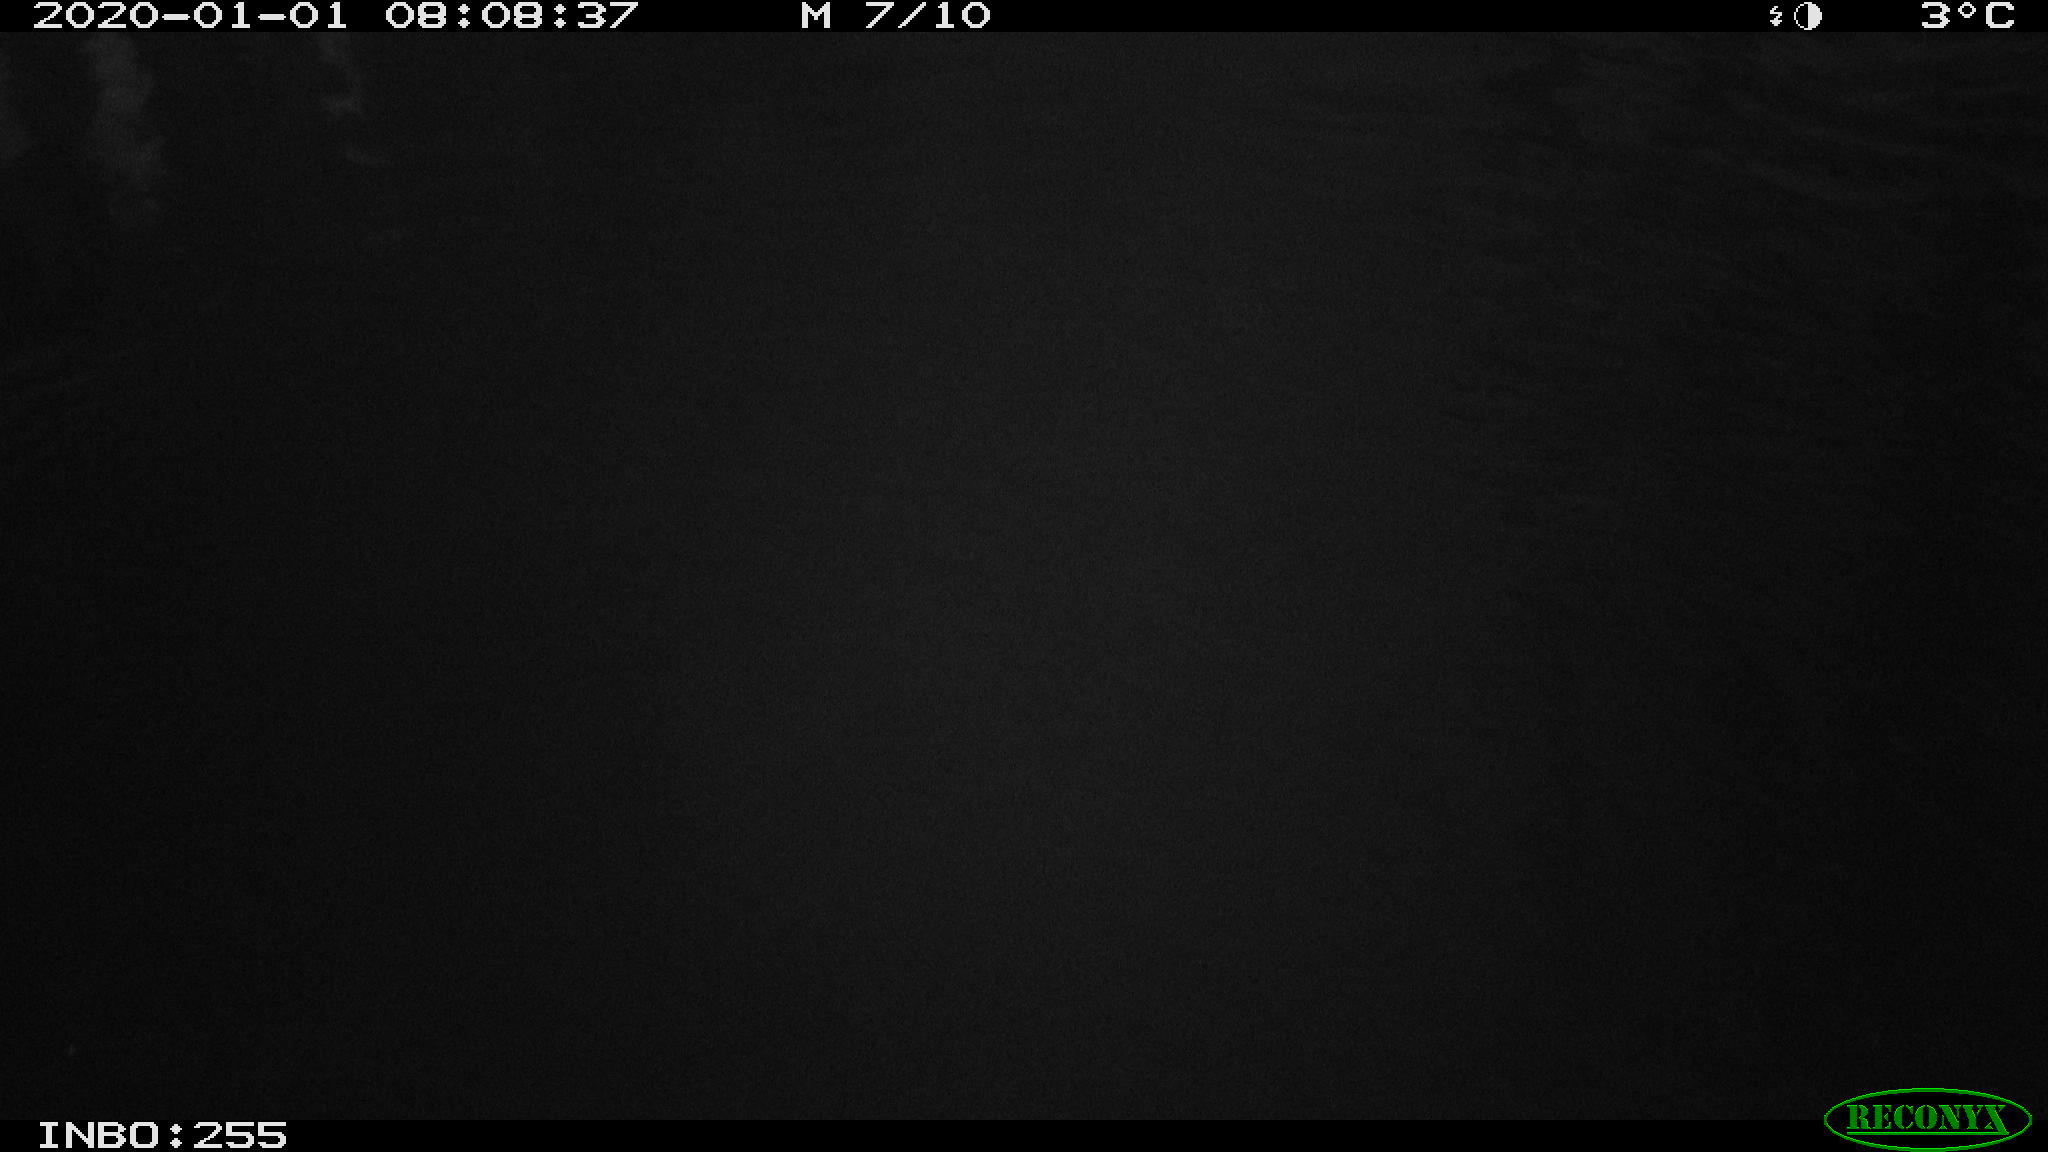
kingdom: Animalia
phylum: Chordata
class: Aves
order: Gruiformes
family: Rallidae
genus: Gallinula
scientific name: Gallinula chloropus
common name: Common moorhen
